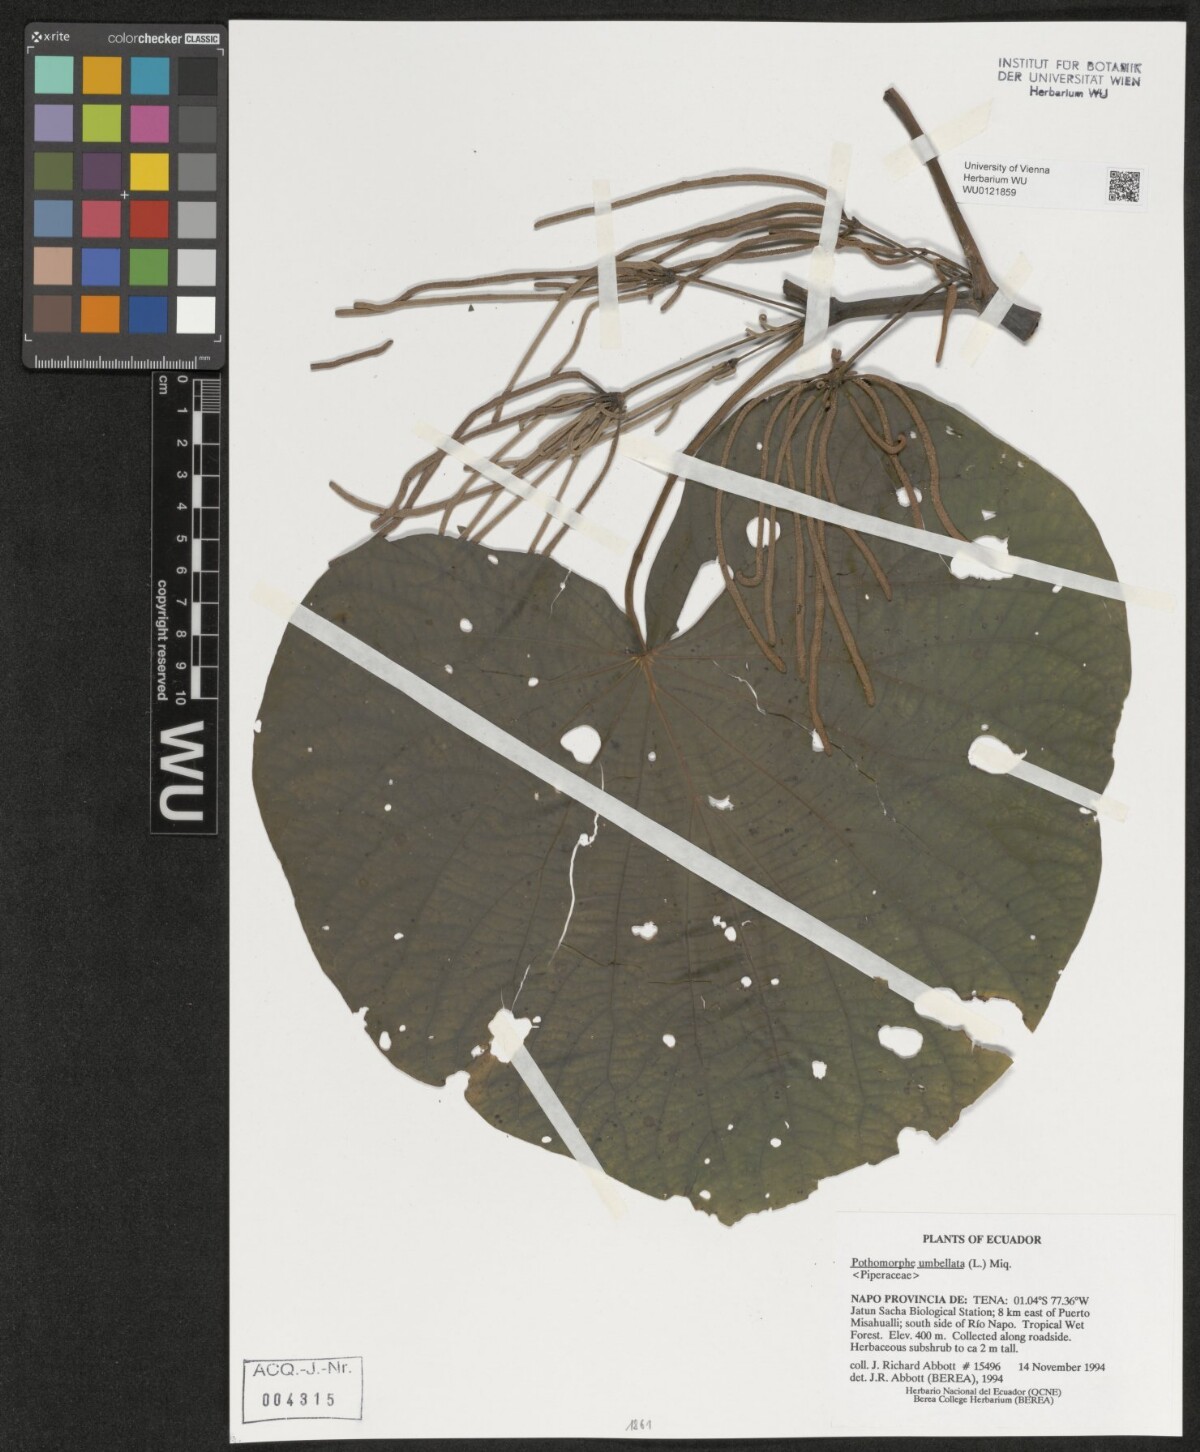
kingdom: Plantae
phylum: Tracheophyta
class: Magnoliopsida
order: Piperales
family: Piperaceae
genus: Piper
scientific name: Piper umbellatum
